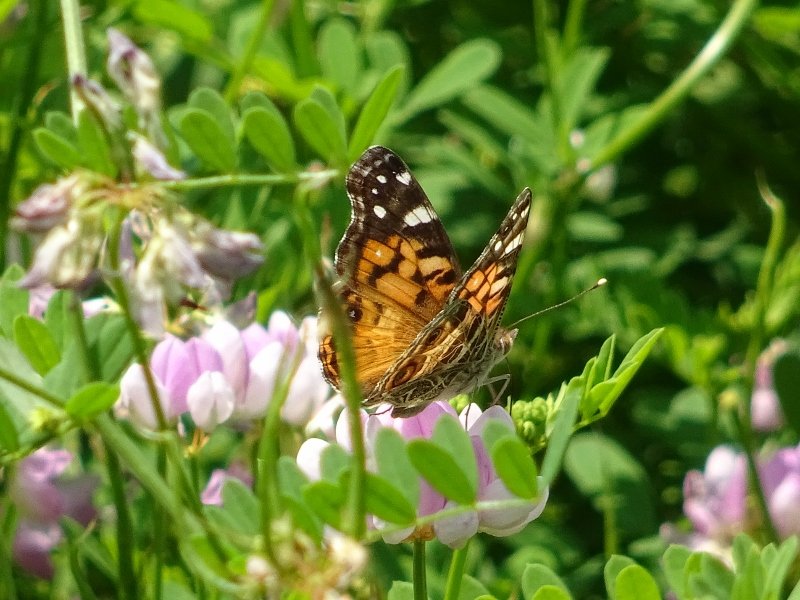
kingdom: Animalia
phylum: Arthropoda
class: Insecta
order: Lepidoptera
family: Nymphalidae
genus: Vanessa
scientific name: Vanessa virginiensis
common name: American Lady
